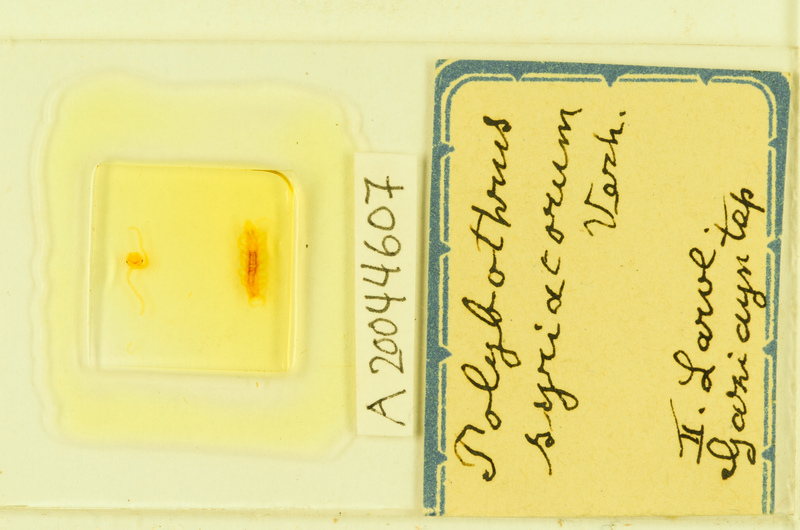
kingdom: Animalia
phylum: Arthropoda
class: Chilopoda
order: Lithobiomorpha
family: Lithobiidae
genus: Polybothrus
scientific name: Polybothrus
